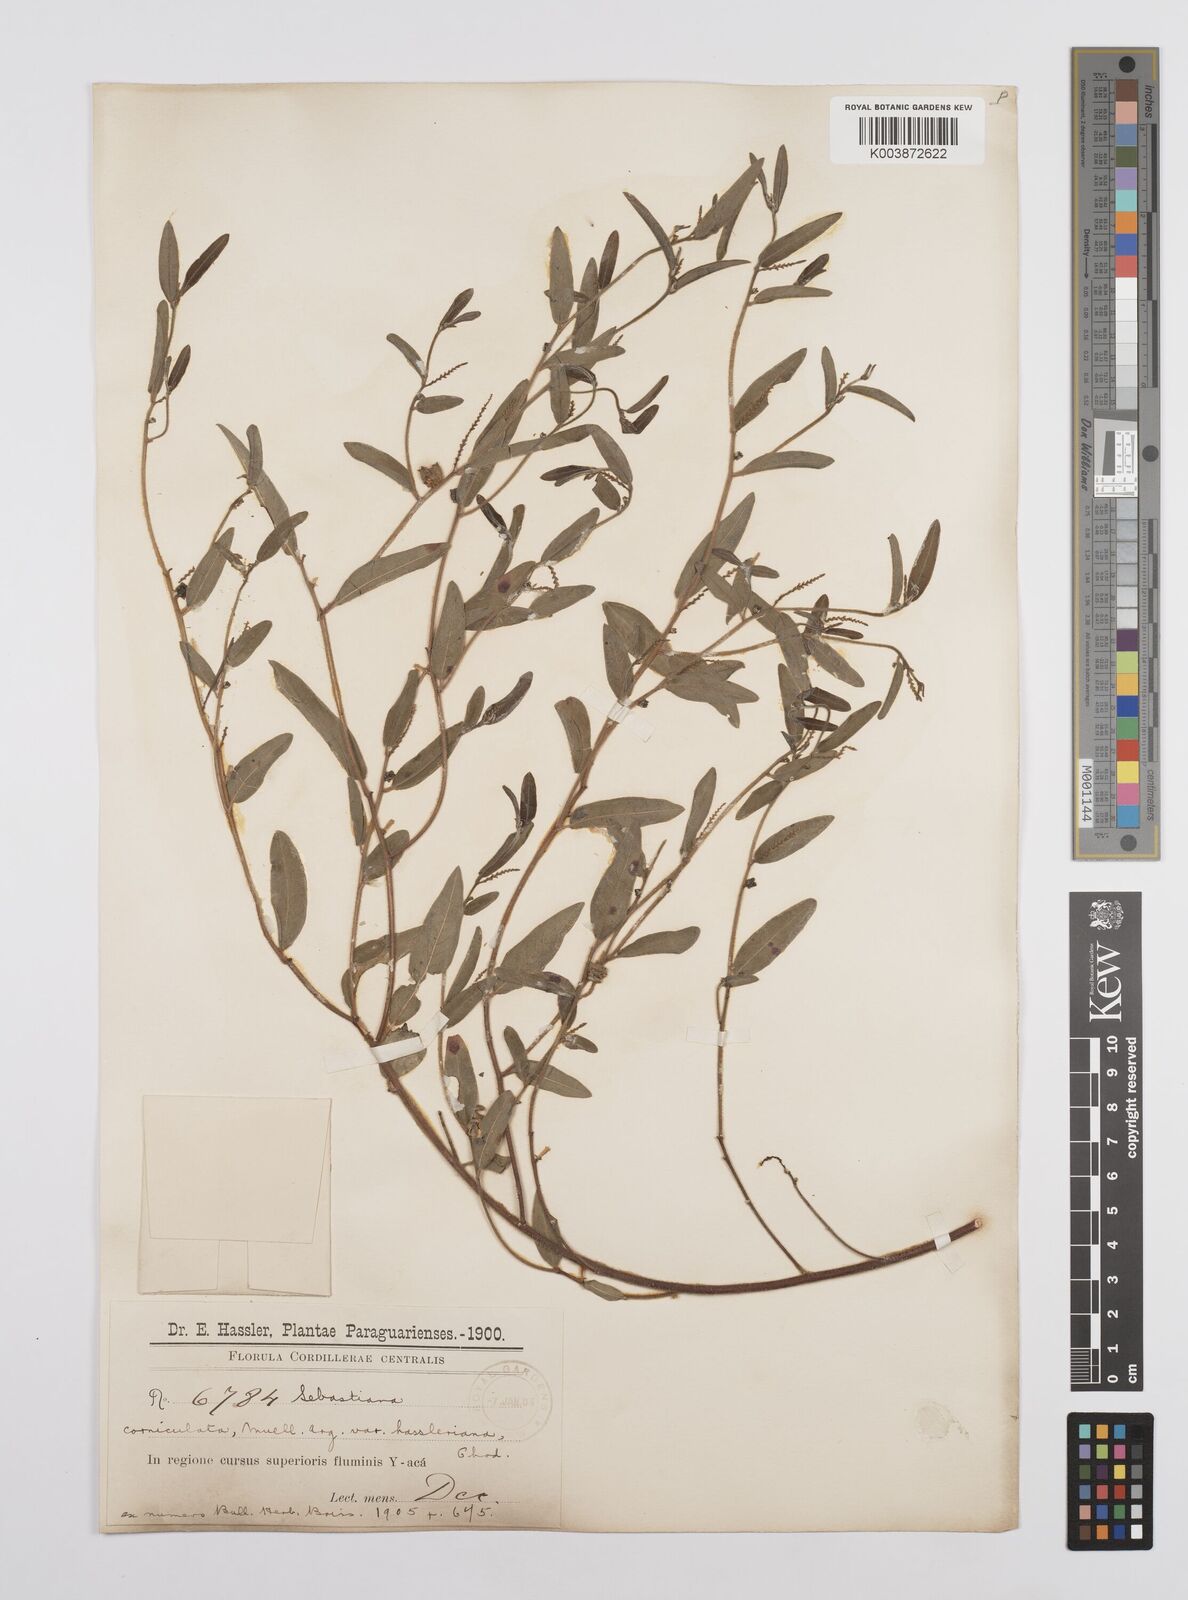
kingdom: Plantae
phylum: Tracheophyta
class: Magnoliopsida
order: Malpighiales
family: Euphorbiaceae
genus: Microstachys
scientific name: Microstachys hispida
